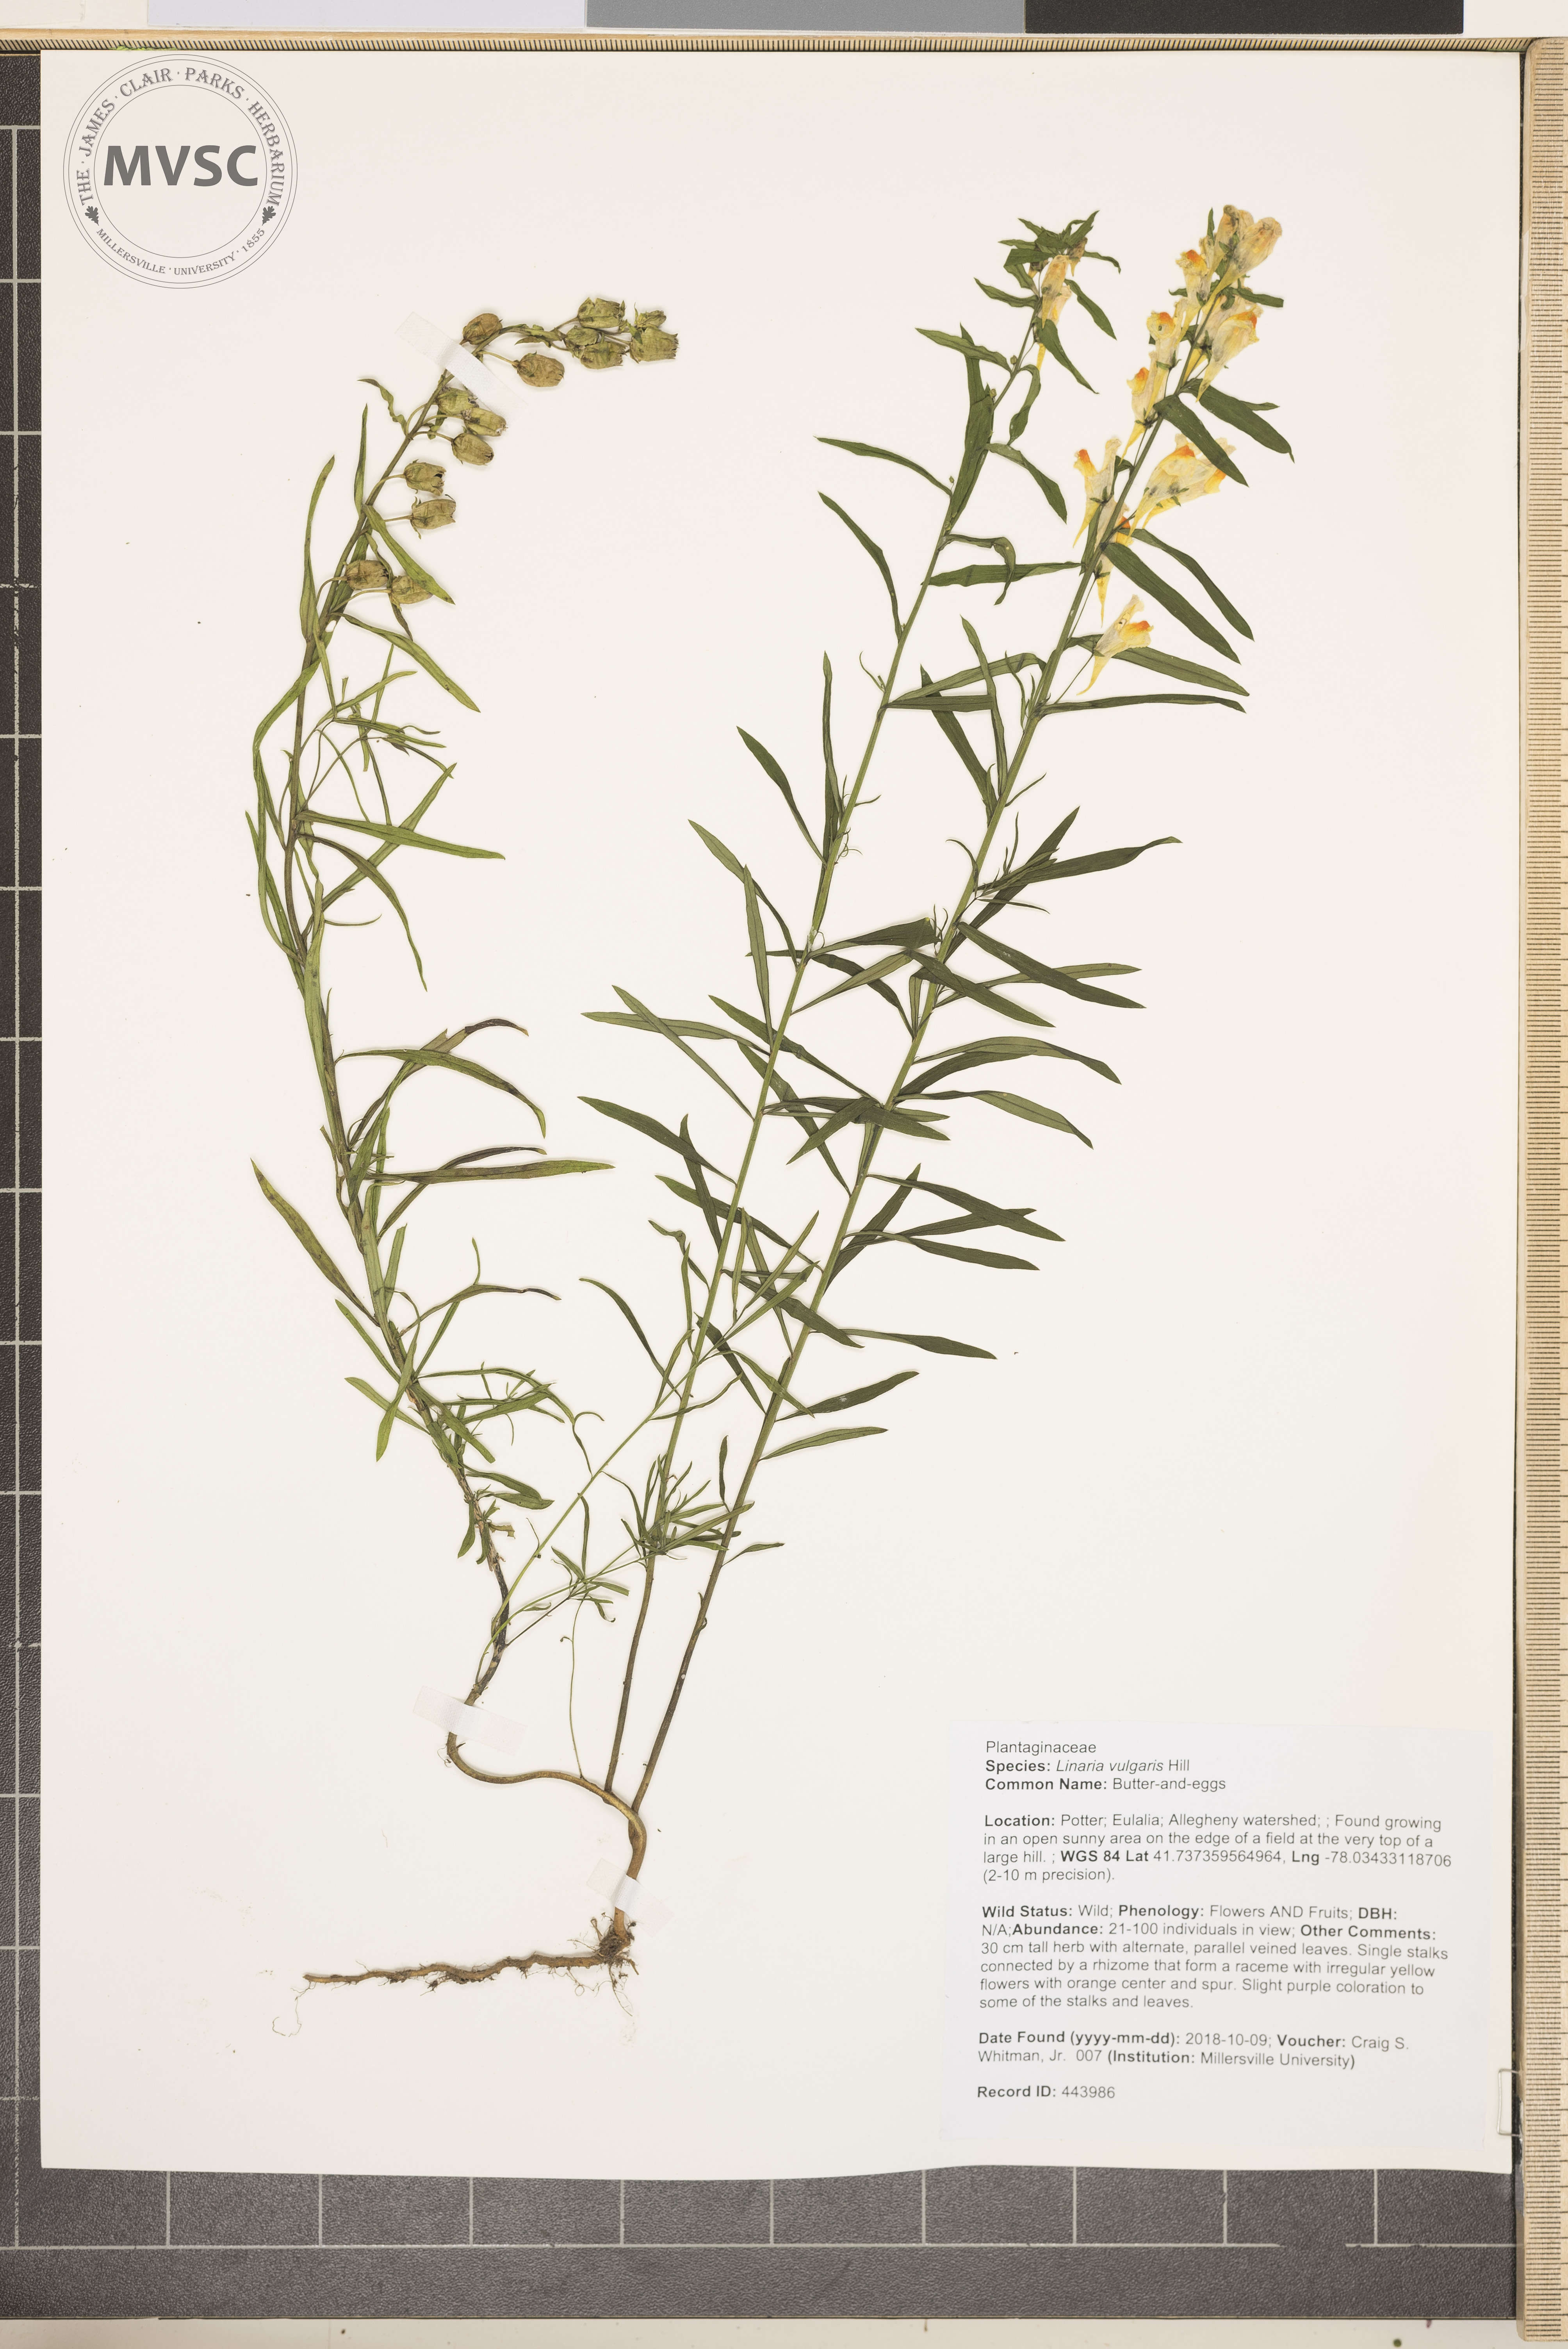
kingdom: Plantae
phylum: Tracheophyta
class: Magnoliopsida
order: Lamiales
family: Plantaginaceae
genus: Linaria
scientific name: Linaria vulgaris
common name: Butter-and-eggs
